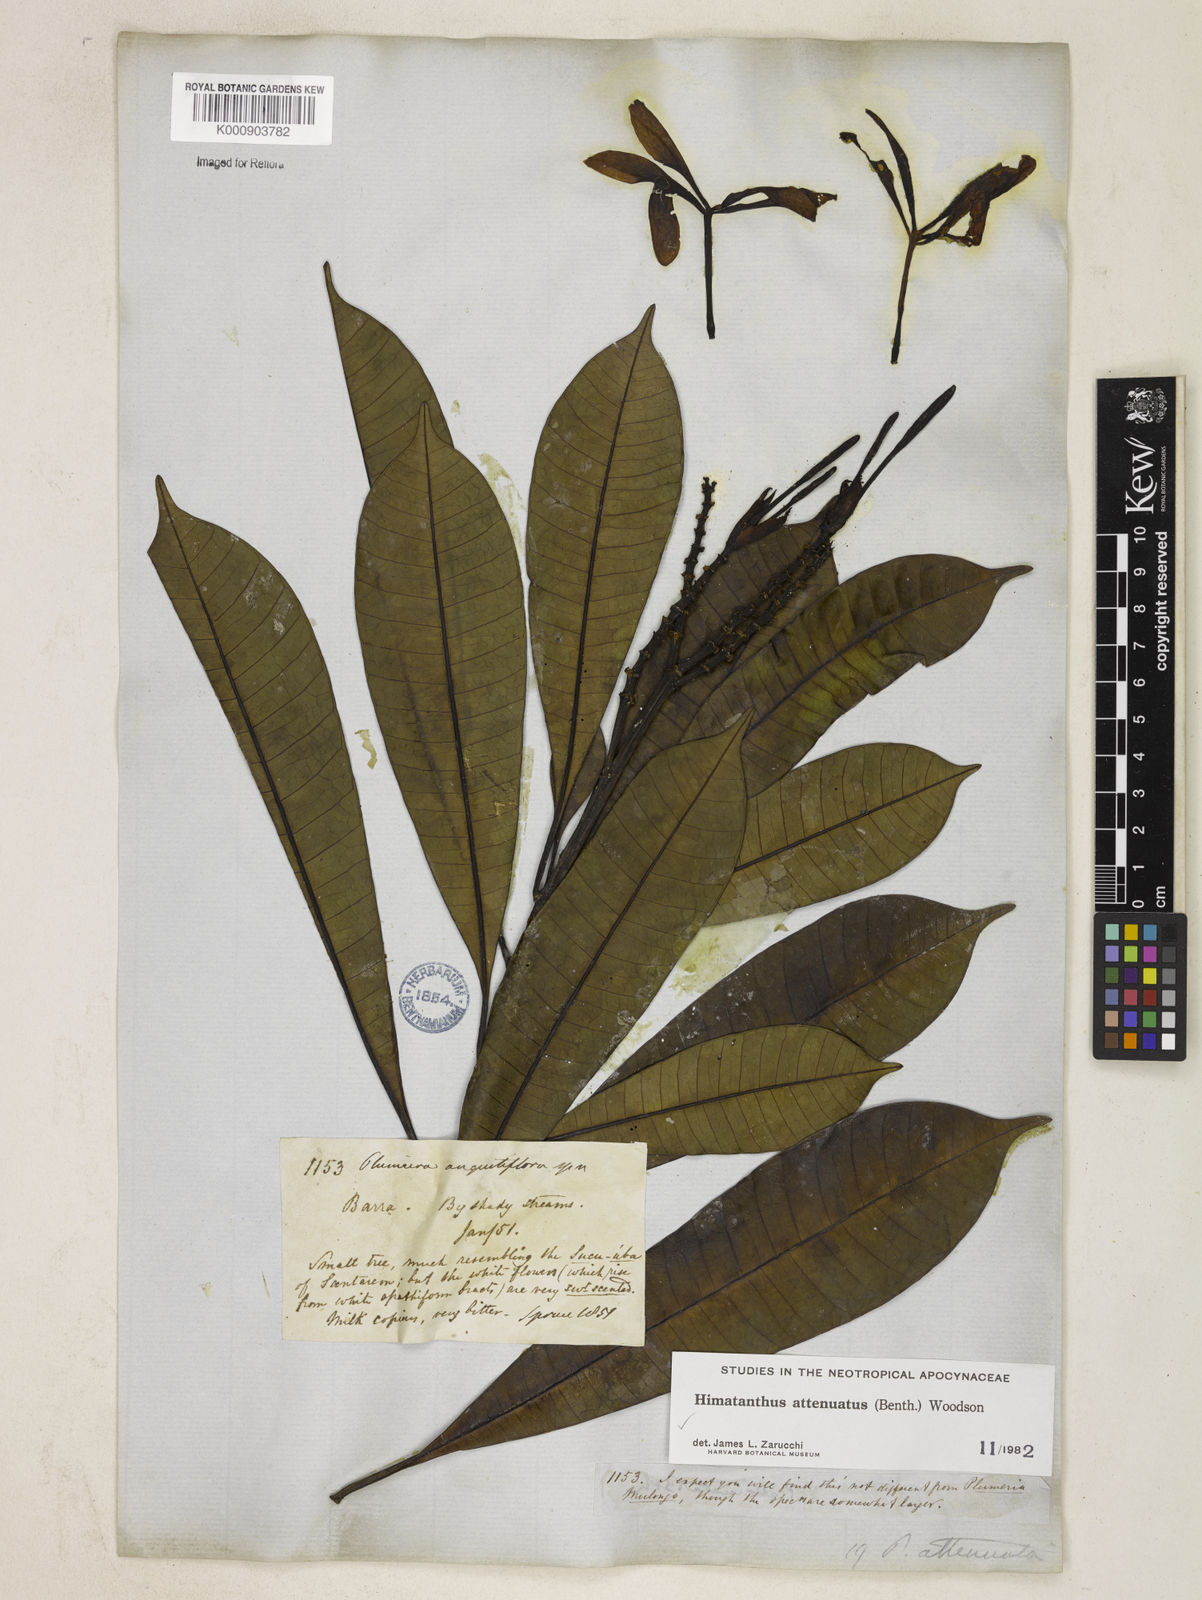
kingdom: Plantae
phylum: Tracheophyta
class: Magnoliopsida
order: Gentianales
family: Apocynaceae
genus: Himatanthus
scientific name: Himatanthus attenuatus
